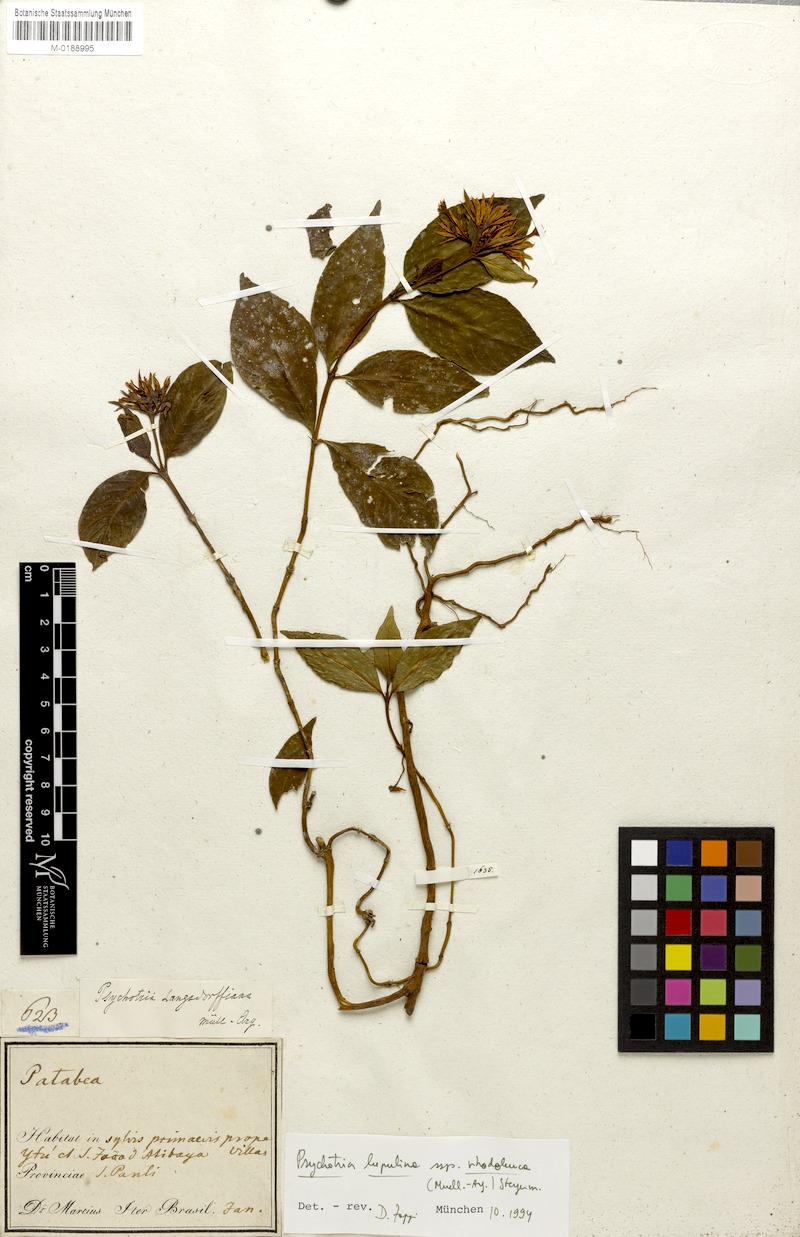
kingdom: Plantae
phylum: Tracheophyta
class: Magnoliopsida
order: Gentianales
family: Rubiaceae
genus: Palicourea
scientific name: Palicourea justiciifolia
